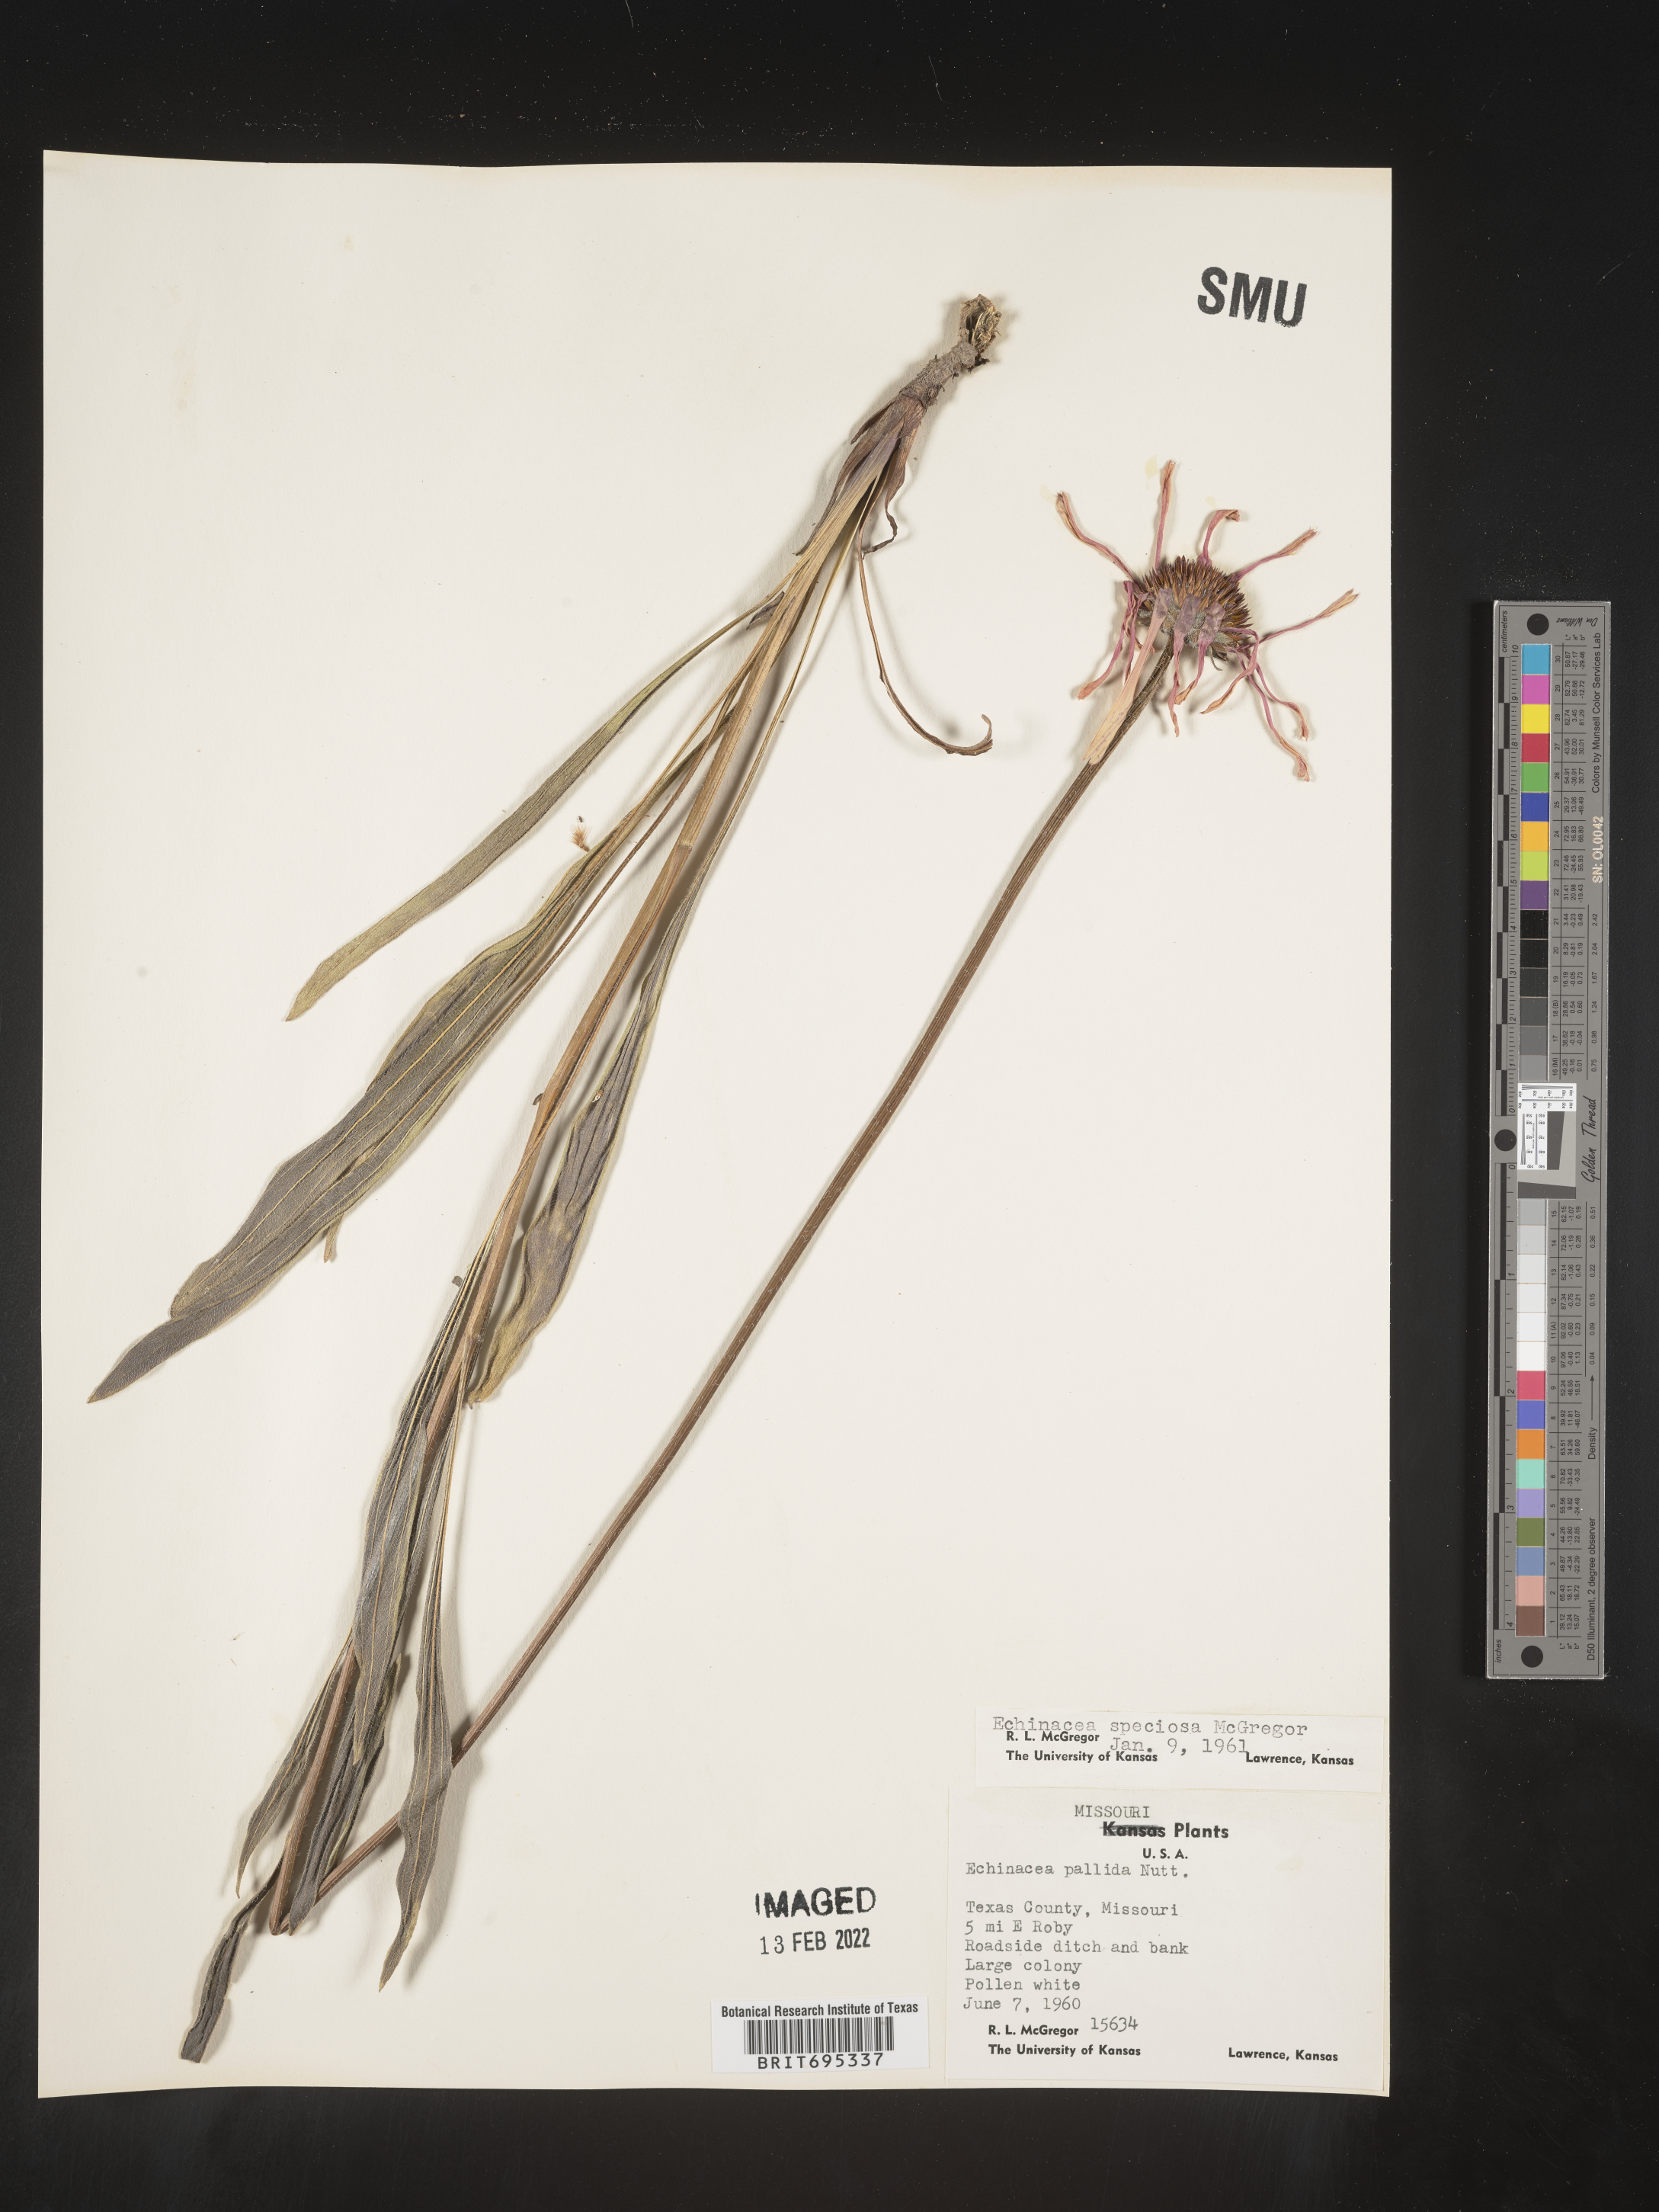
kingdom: Plantae
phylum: Tracheophyta
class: Magnoliopsida
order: Asterales
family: Asteraceae
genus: Echinacea
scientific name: Echinacea simulata
